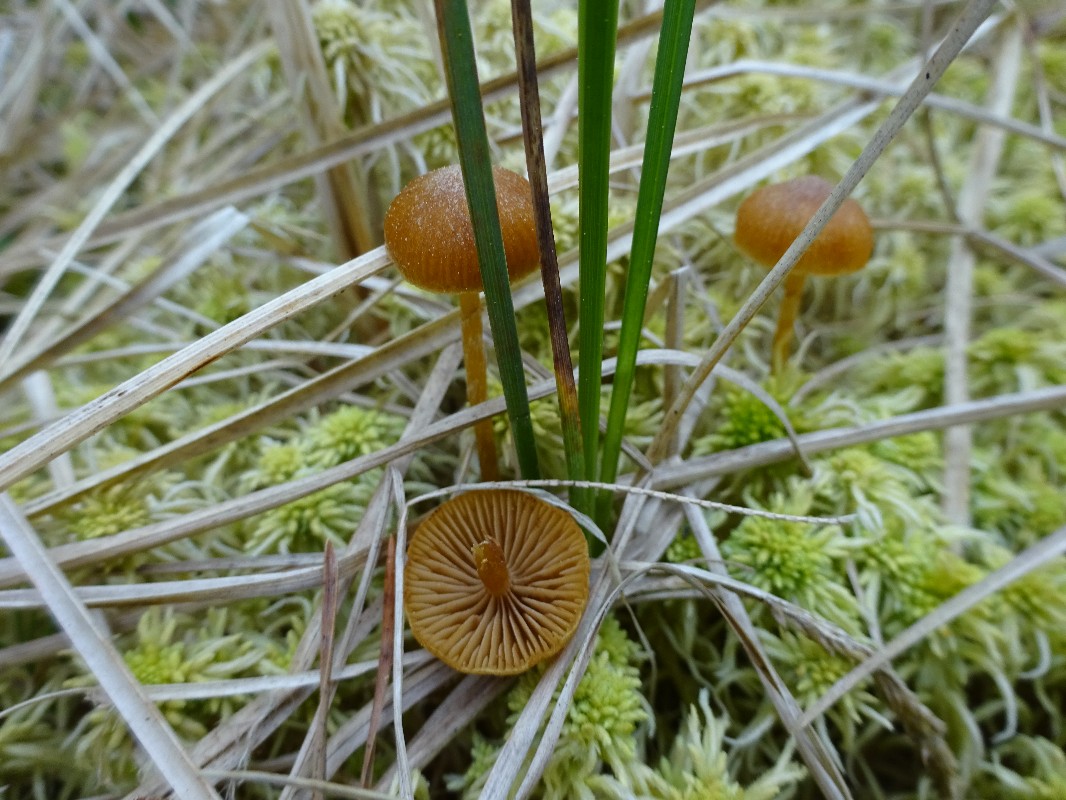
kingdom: Fungi
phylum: Basidiomycota
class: Agaricomycetes
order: Agaricales
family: Hymenogastraceae
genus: Galerina
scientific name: Galerina paludosa
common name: mose-hjelmhat
